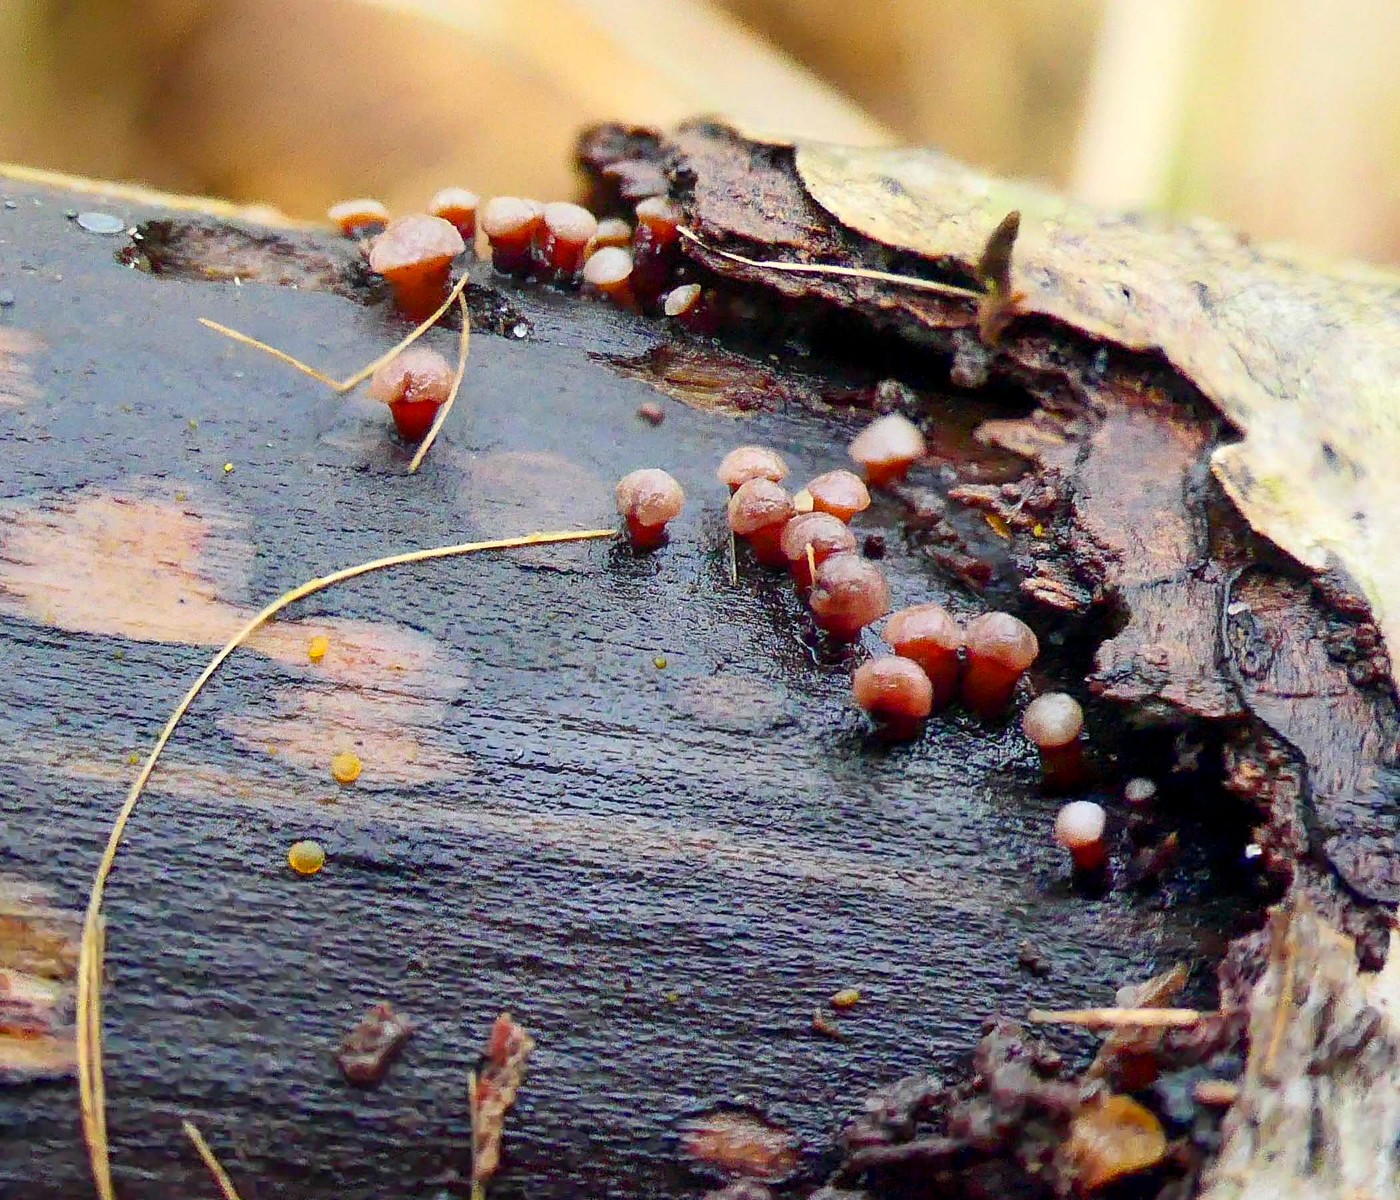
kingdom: Fungi
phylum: Ascomycota
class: Leotiomycetes
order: Helotiales
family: Gelatinodiscaceae
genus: Ascocoryne
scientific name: Ascocoryne albida
